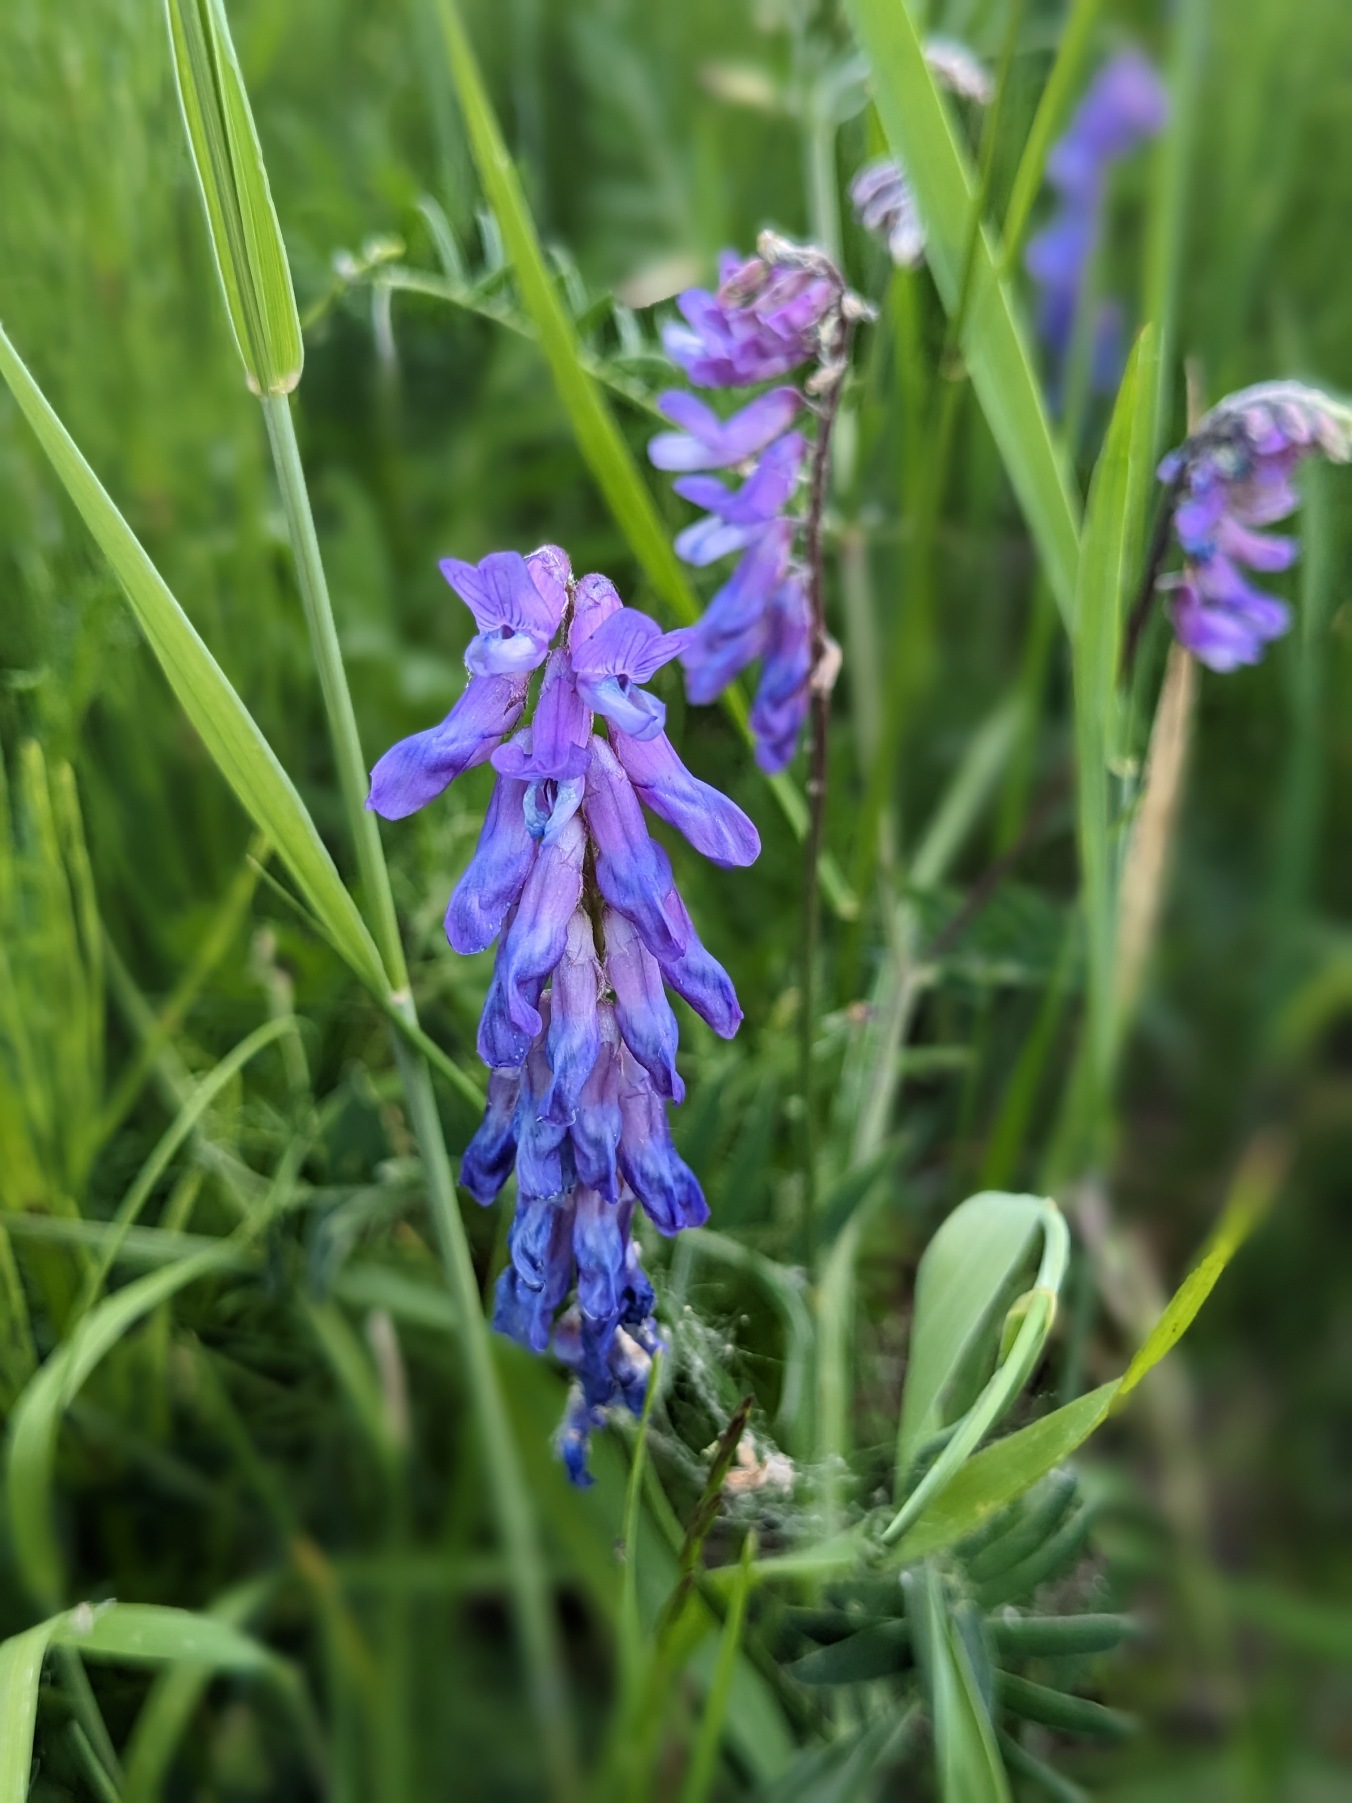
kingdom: Plantae
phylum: Tracheophyta
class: Magnoliopsida
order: Fabales
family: Fabaceae
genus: Vicia
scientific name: Vicia cracca
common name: Muse-vikke
